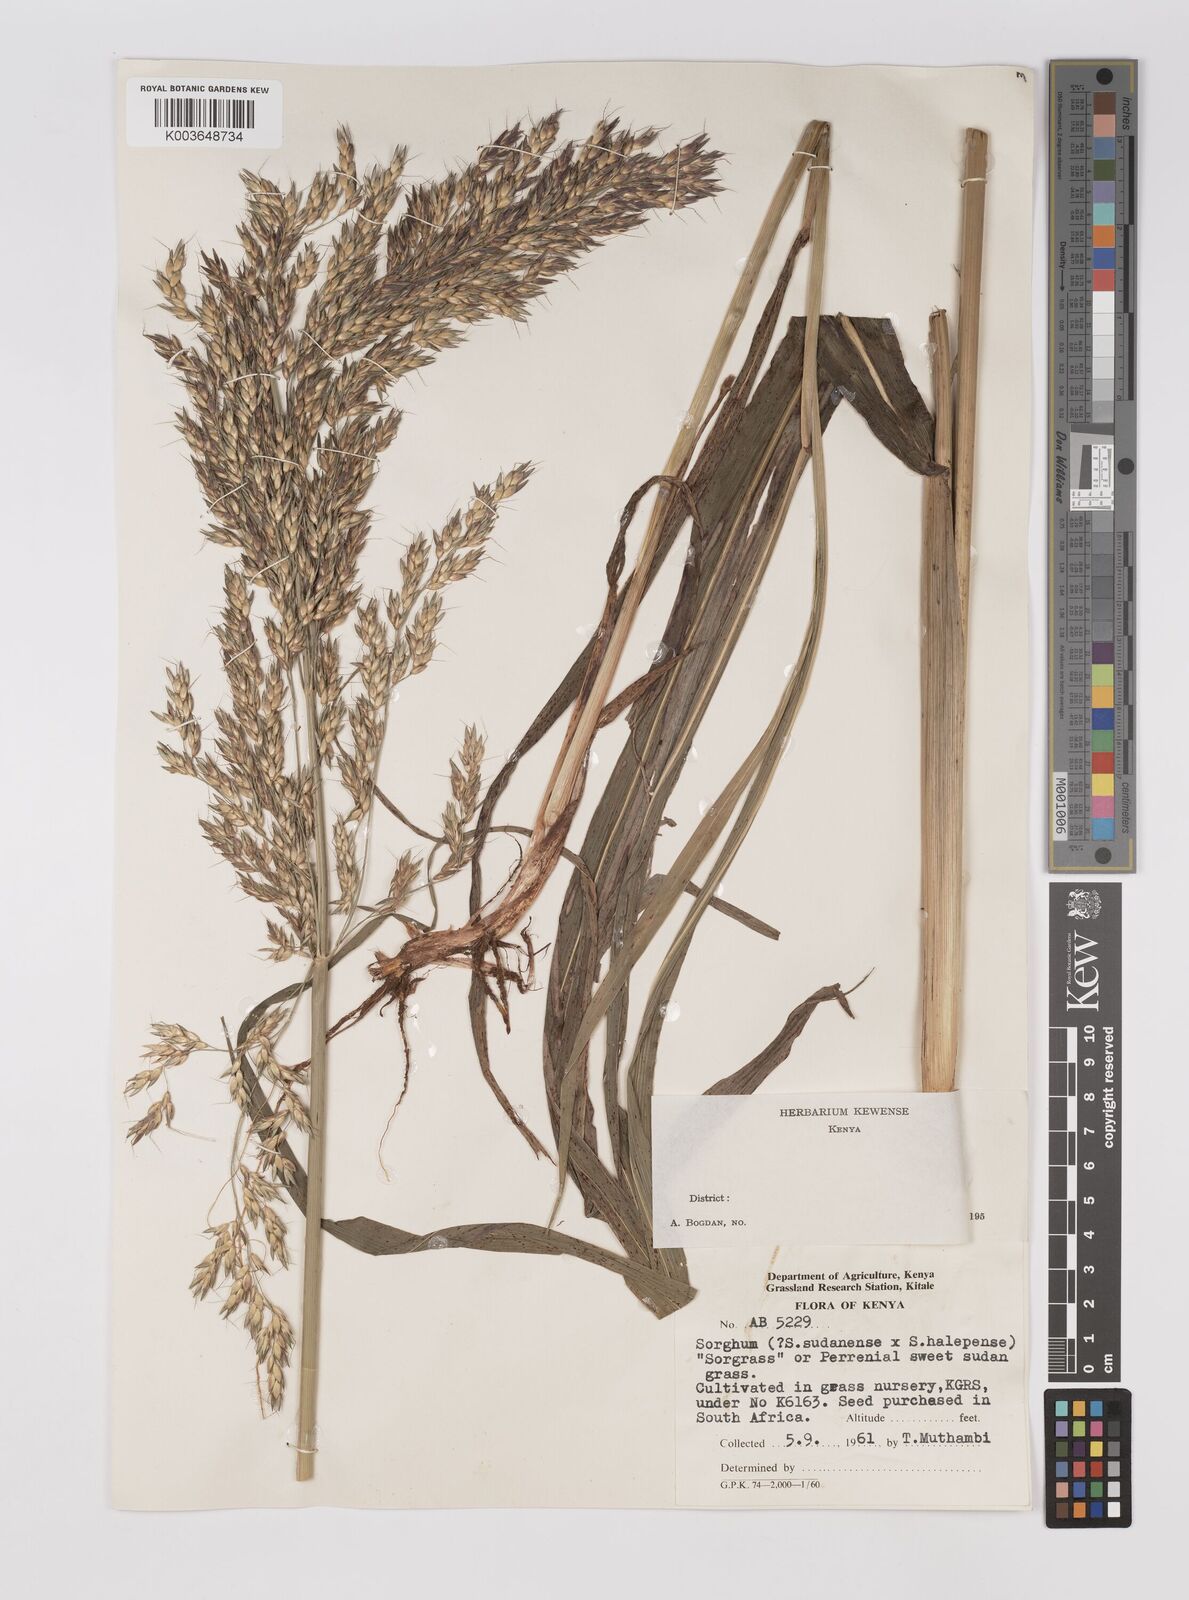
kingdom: Plantae
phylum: Tracheophyta
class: Liliopsida
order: Poales
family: Poaceae
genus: Sorghum
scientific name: Sorghum drummondii
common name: Sudangrass
